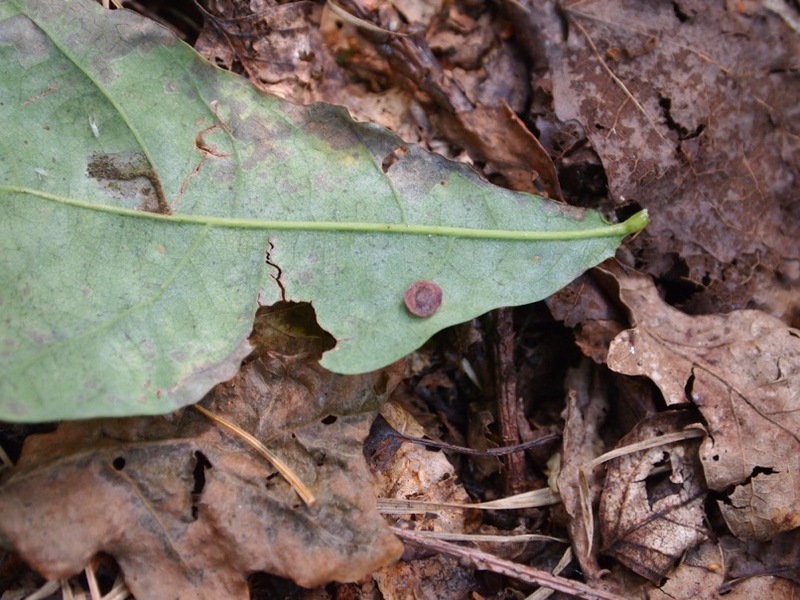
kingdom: Animalia
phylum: Arthropoda
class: Insecta
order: Hymenoptera
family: Cynipidae
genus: Neuroterus
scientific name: Neuroterus albipes
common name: Smooth spangle gall
